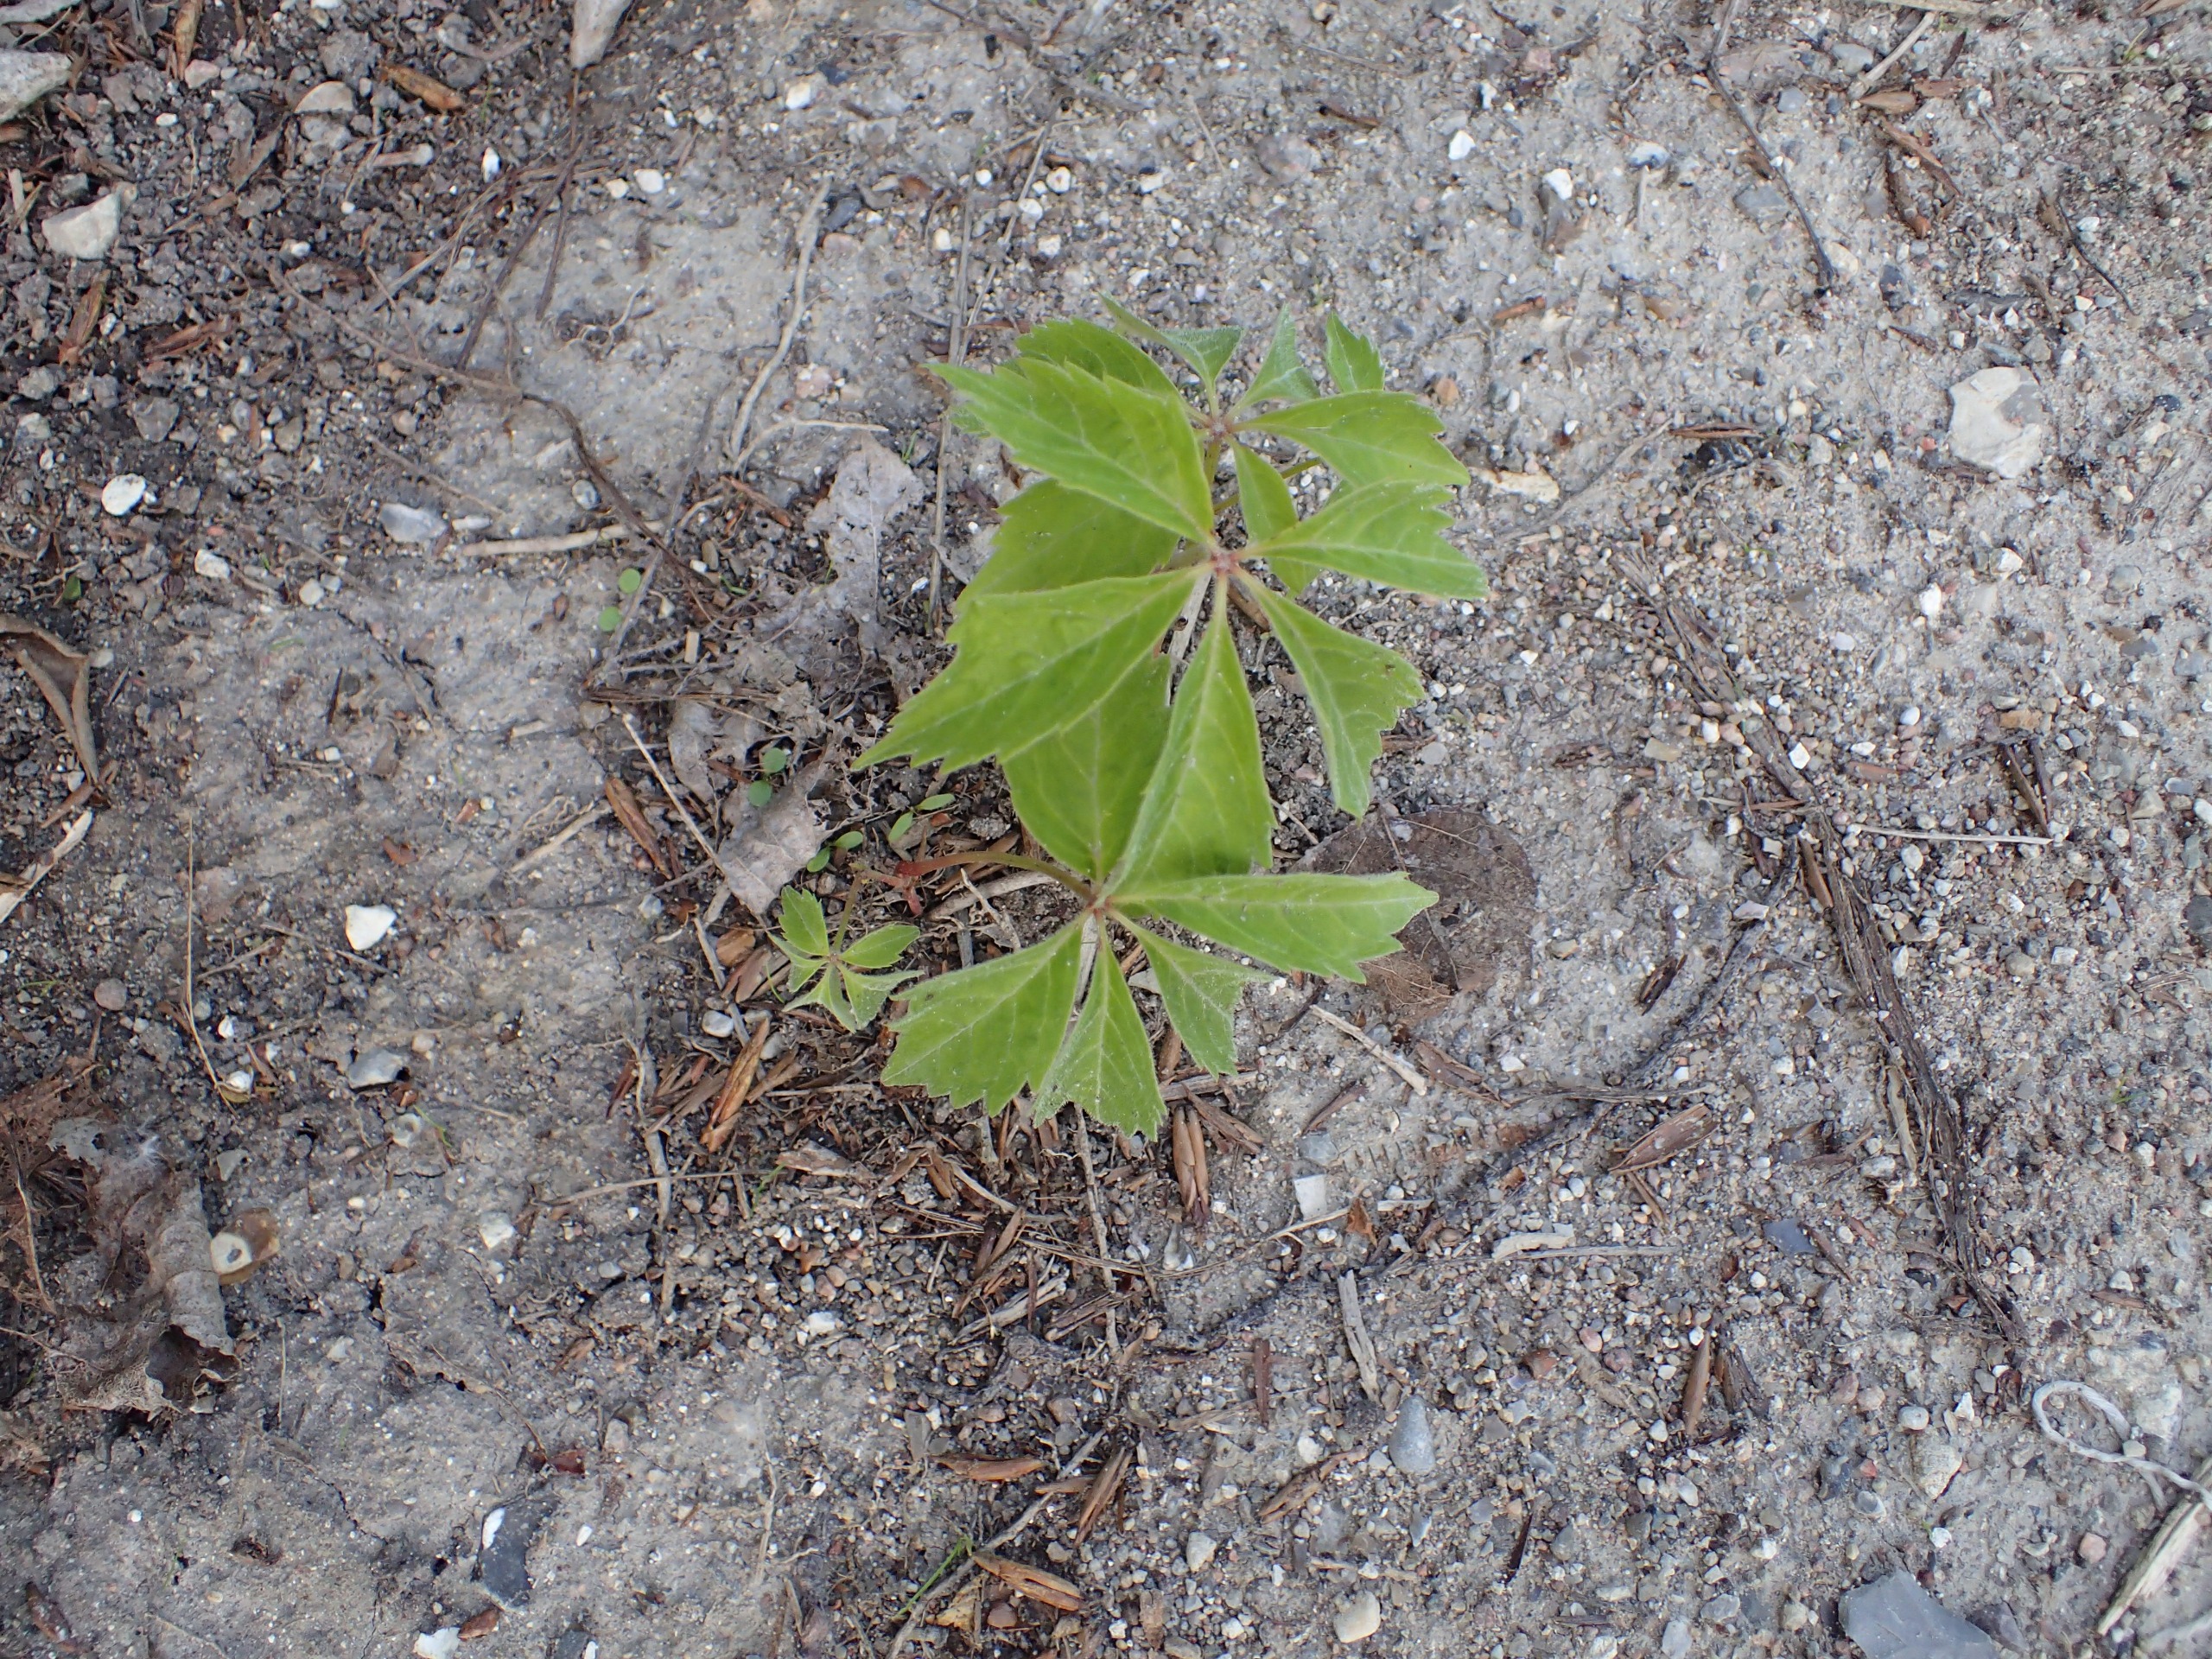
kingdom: Plantae
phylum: Tracheophyta
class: Magnoliopsida
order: Vitales
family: Vitaceae
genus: Parthenocissus
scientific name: Parthenocissus inserta
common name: Vildvin
